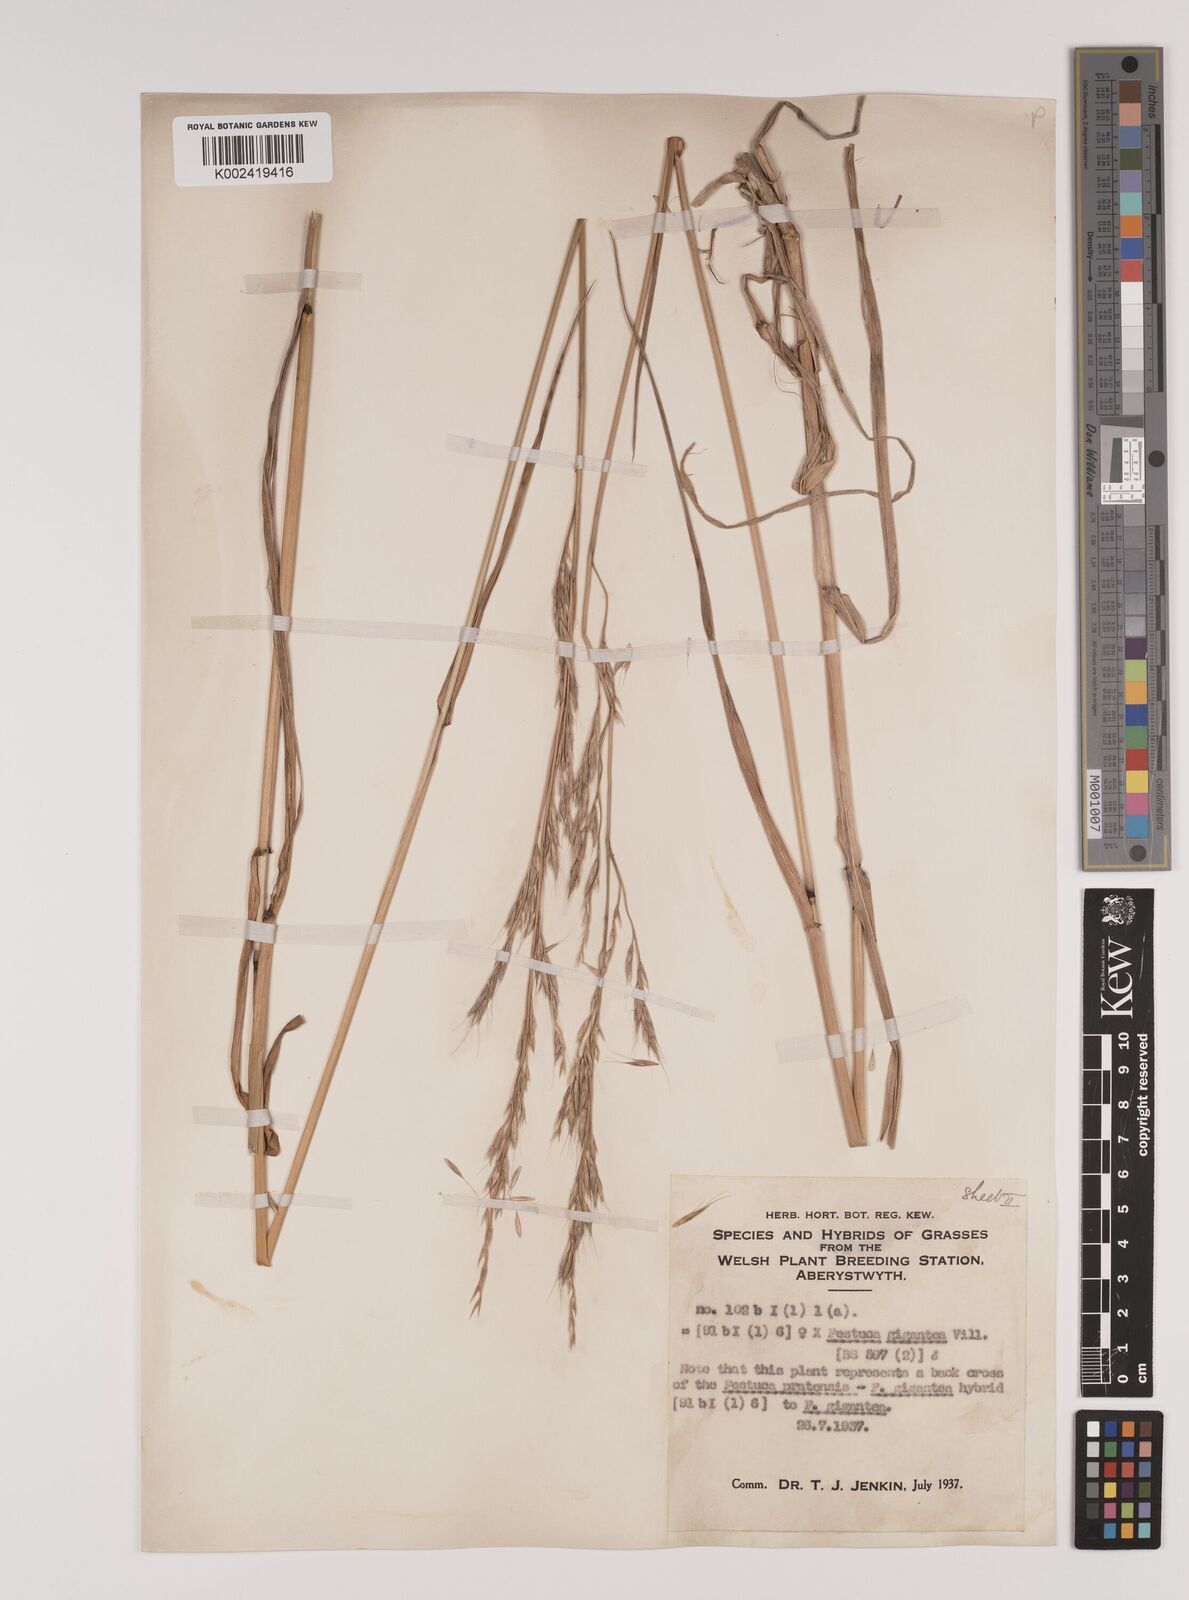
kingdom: Plantae
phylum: Tracheophyta
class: Liliopsida
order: Poales
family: Poaceae
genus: Lolium
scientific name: Lolium giganteum
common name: Giant fescue
